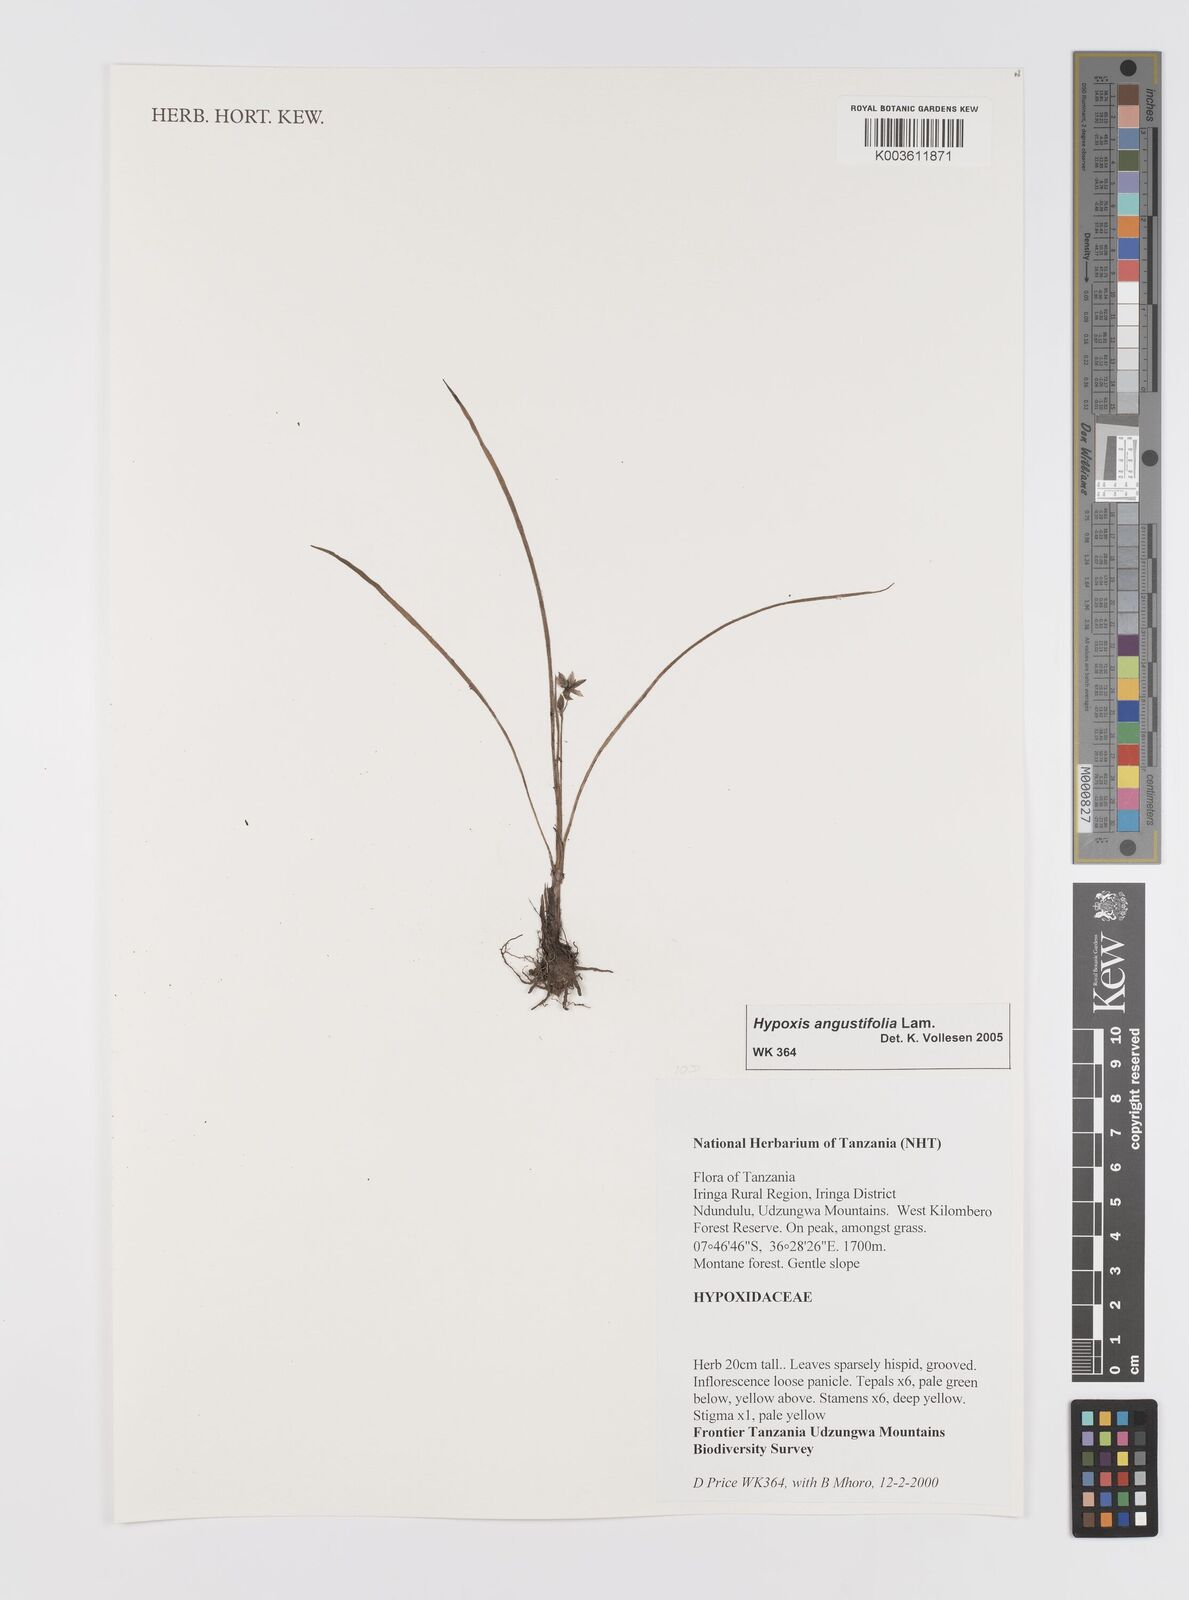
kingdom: Plantae
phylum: Tracheophyta
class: Liliopsida
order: Asparagales
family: Hypoxidaceae
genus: Hypoxis
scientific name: Hypoxis angustifolia
